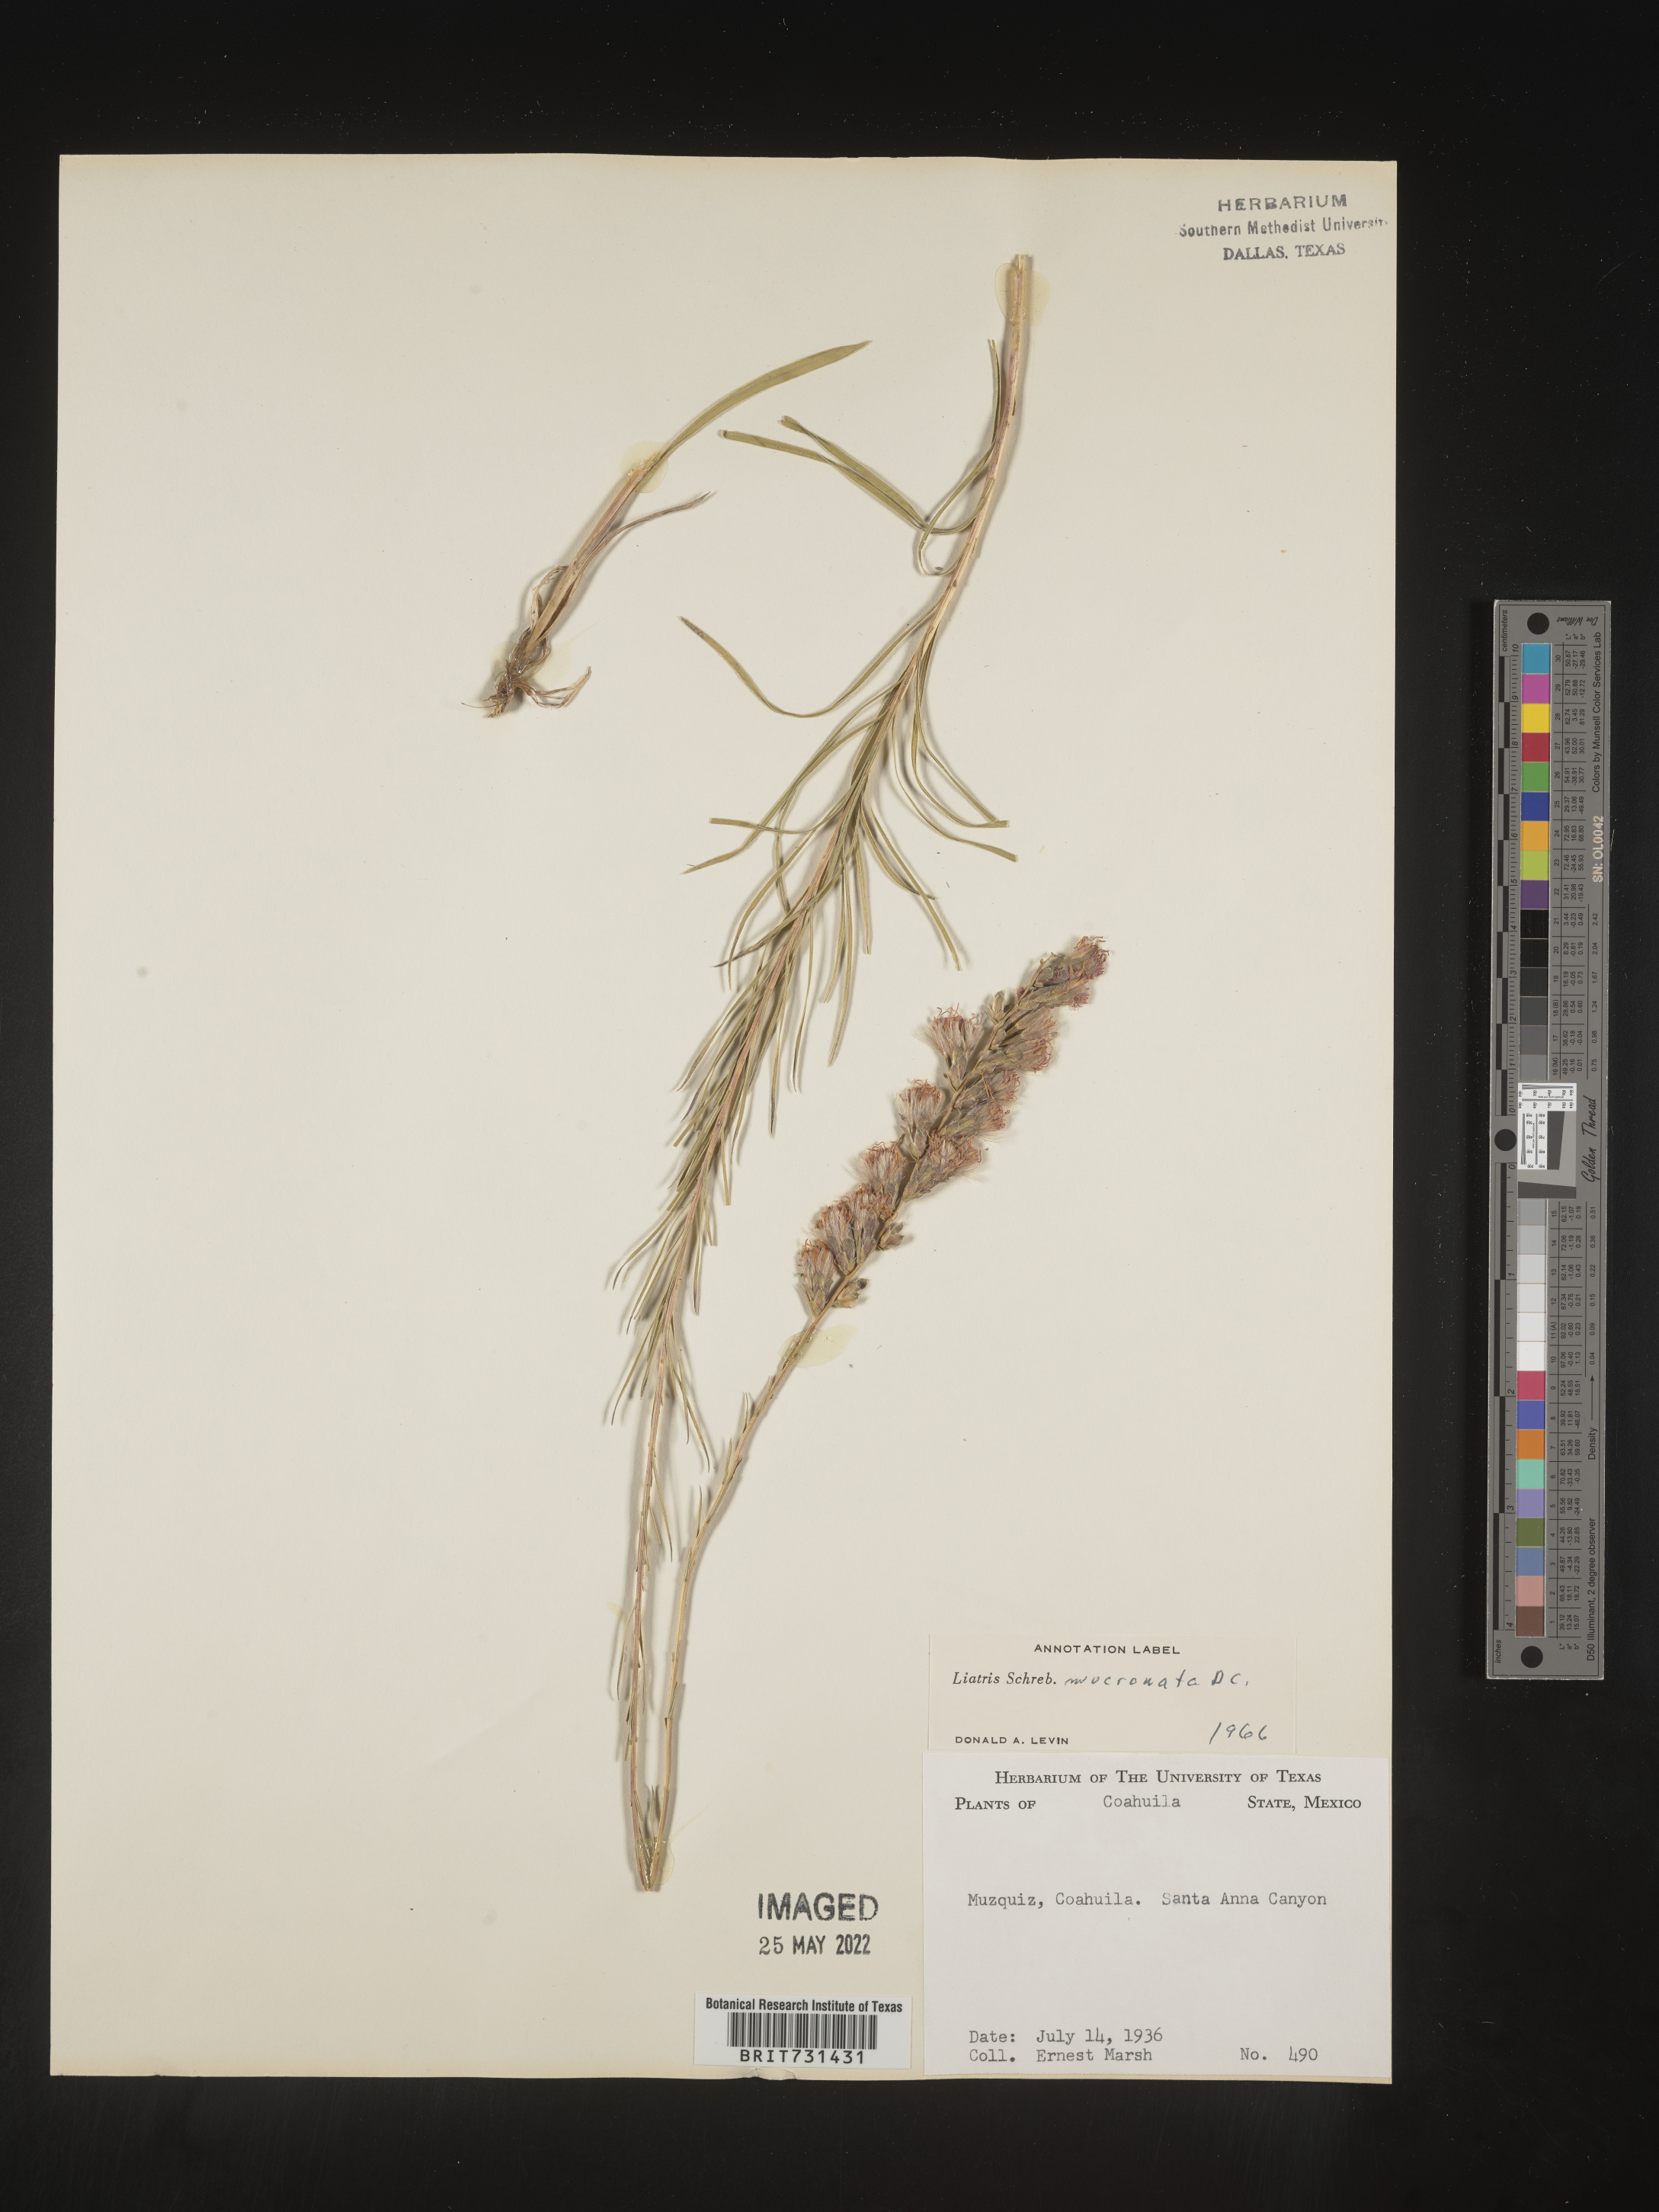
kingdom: Plantae
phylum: Tracheophyta
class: Magnoliopsida
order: Asterales
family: Asteraceae
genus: Liatris
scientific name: Liatris
